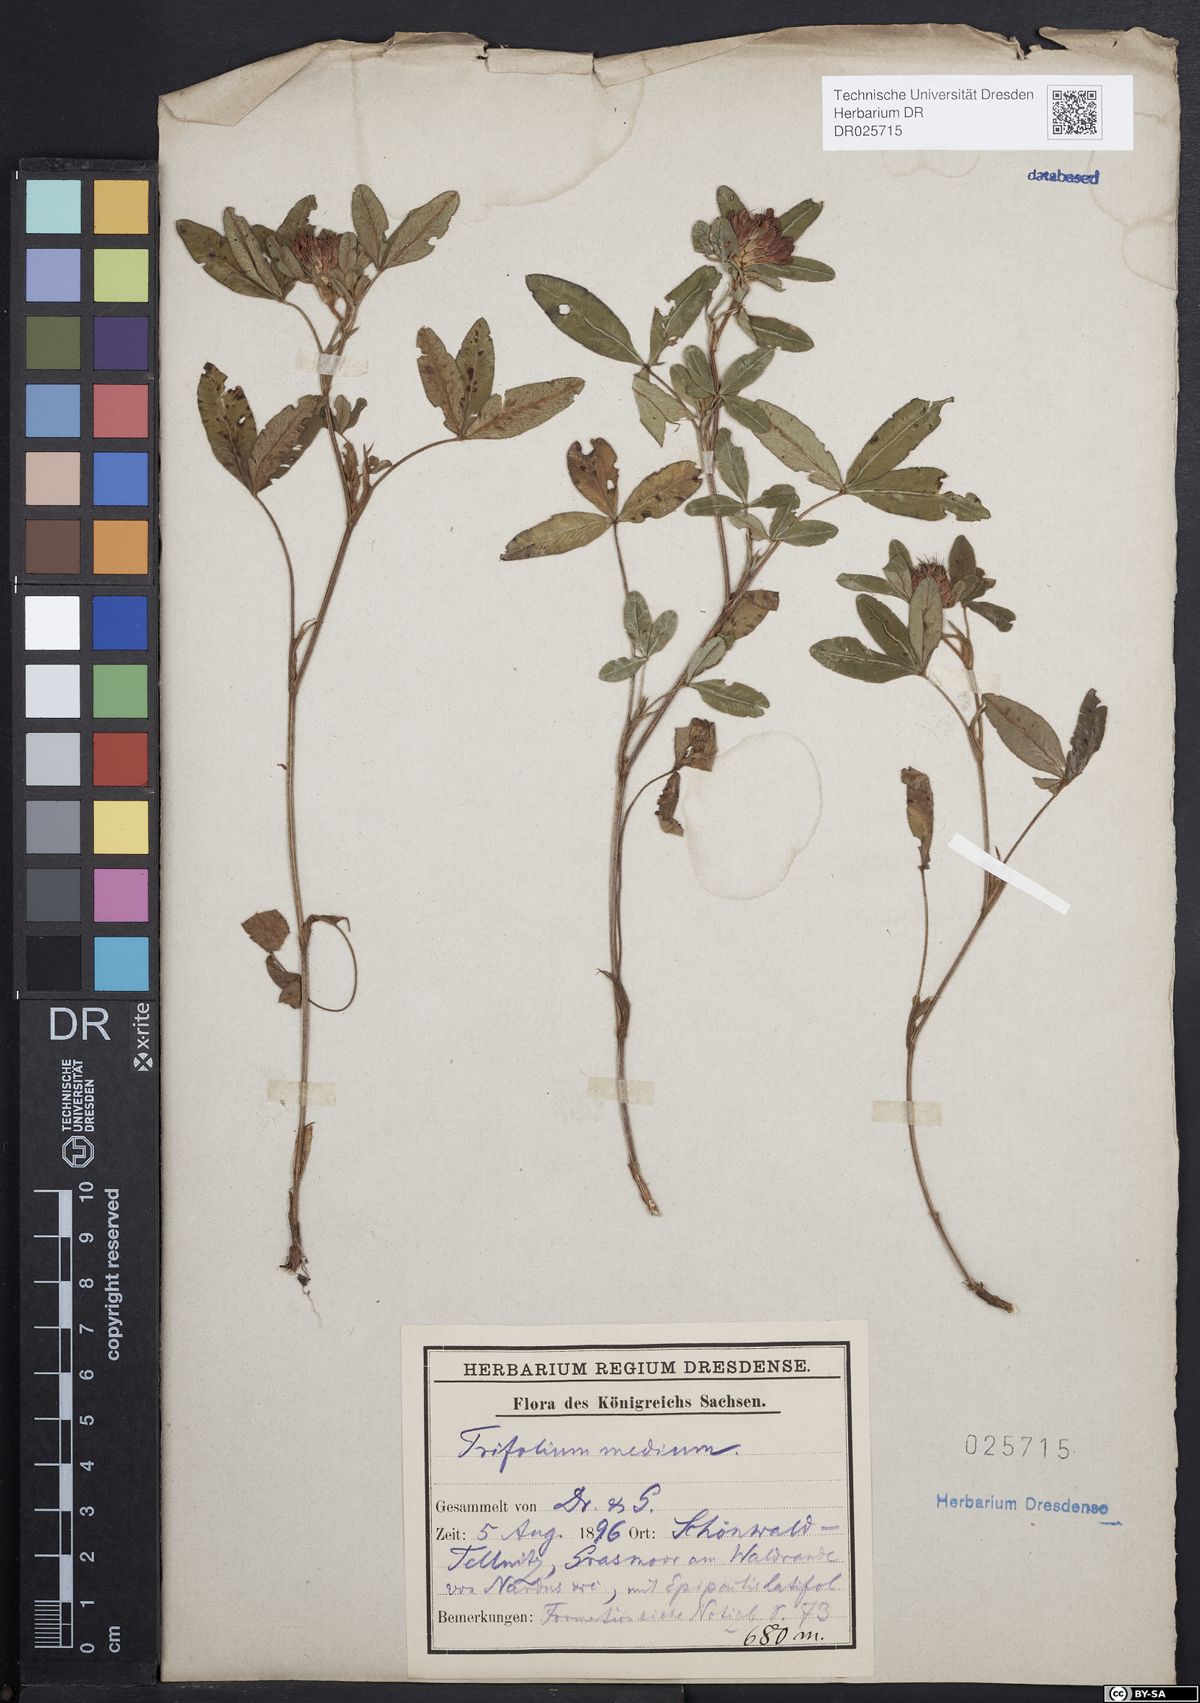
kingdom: Plantae
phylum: Tracheophyta
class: Magnoliopsida
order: Fabales
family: Fabaceae
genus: Trifolium
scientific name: Trifolium medium
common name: Zigzag clover
